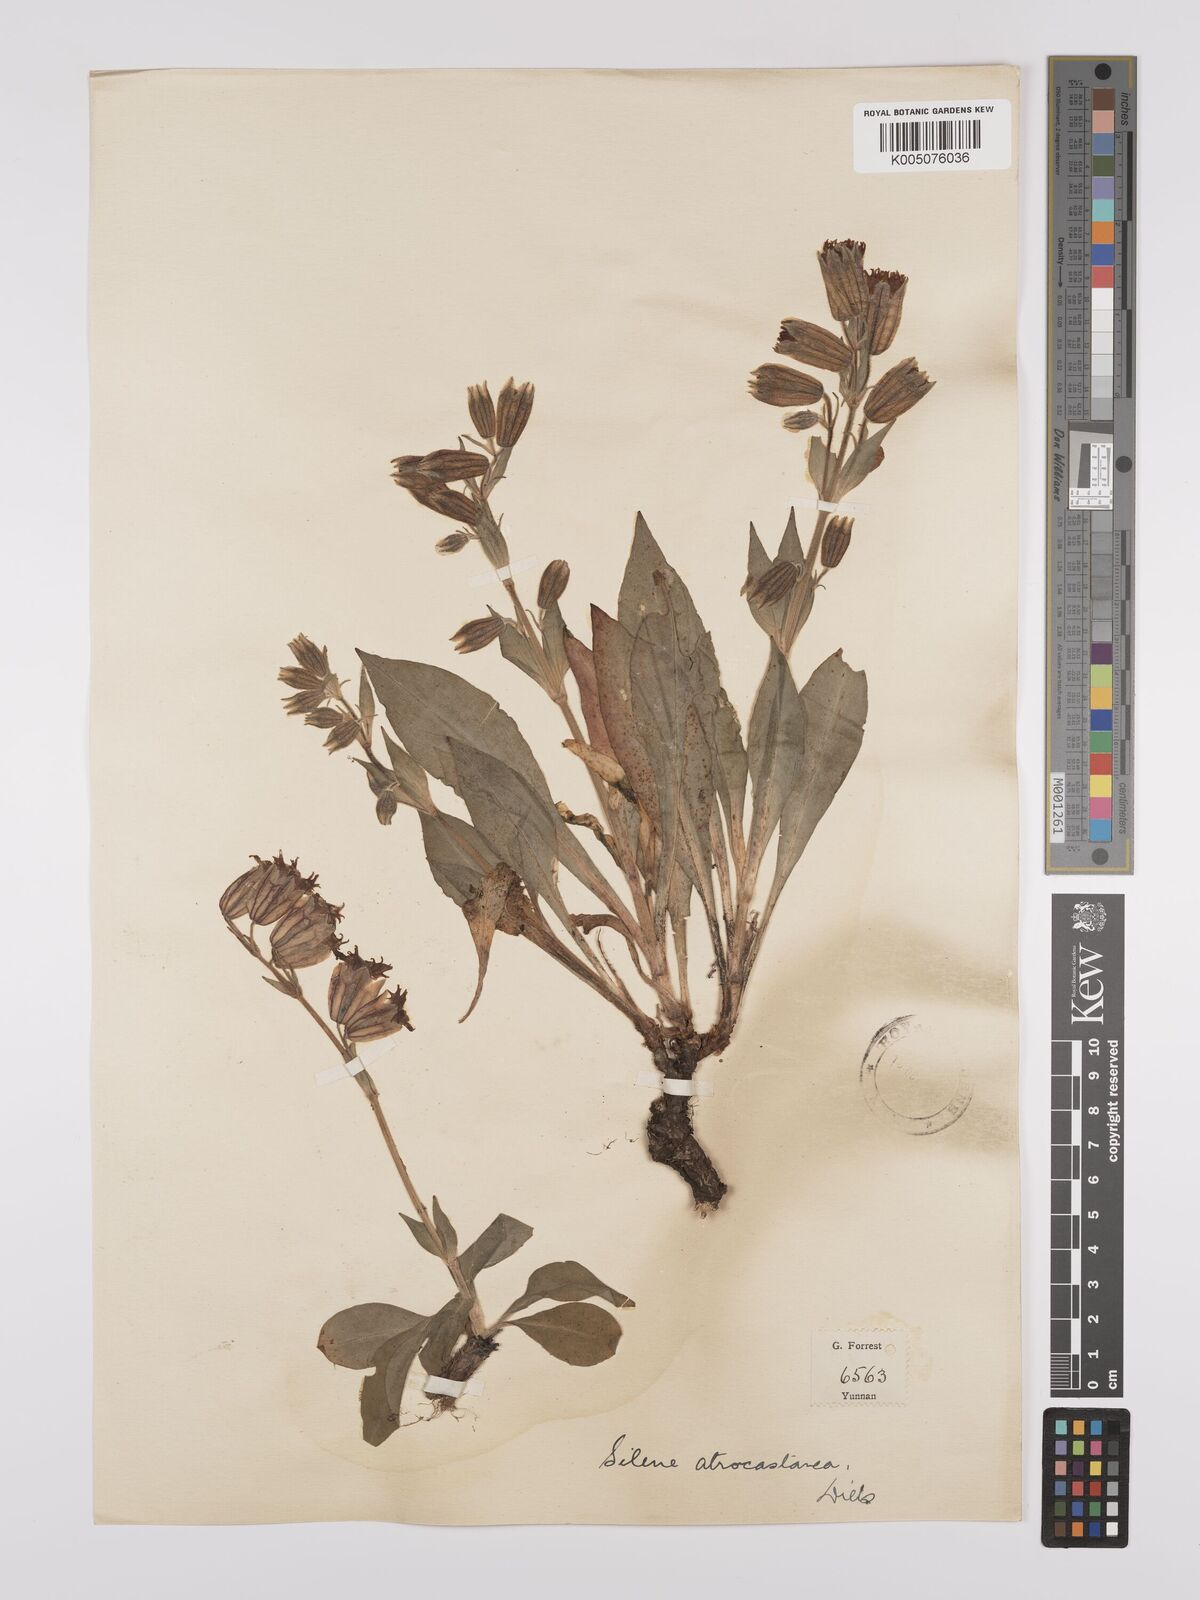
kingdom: Plantae
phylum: Tracheophyta
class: Magnoliopsida
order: Caryophyllales
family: Caryophyllaceae
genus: Silene
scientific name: Silene atrocastanea
